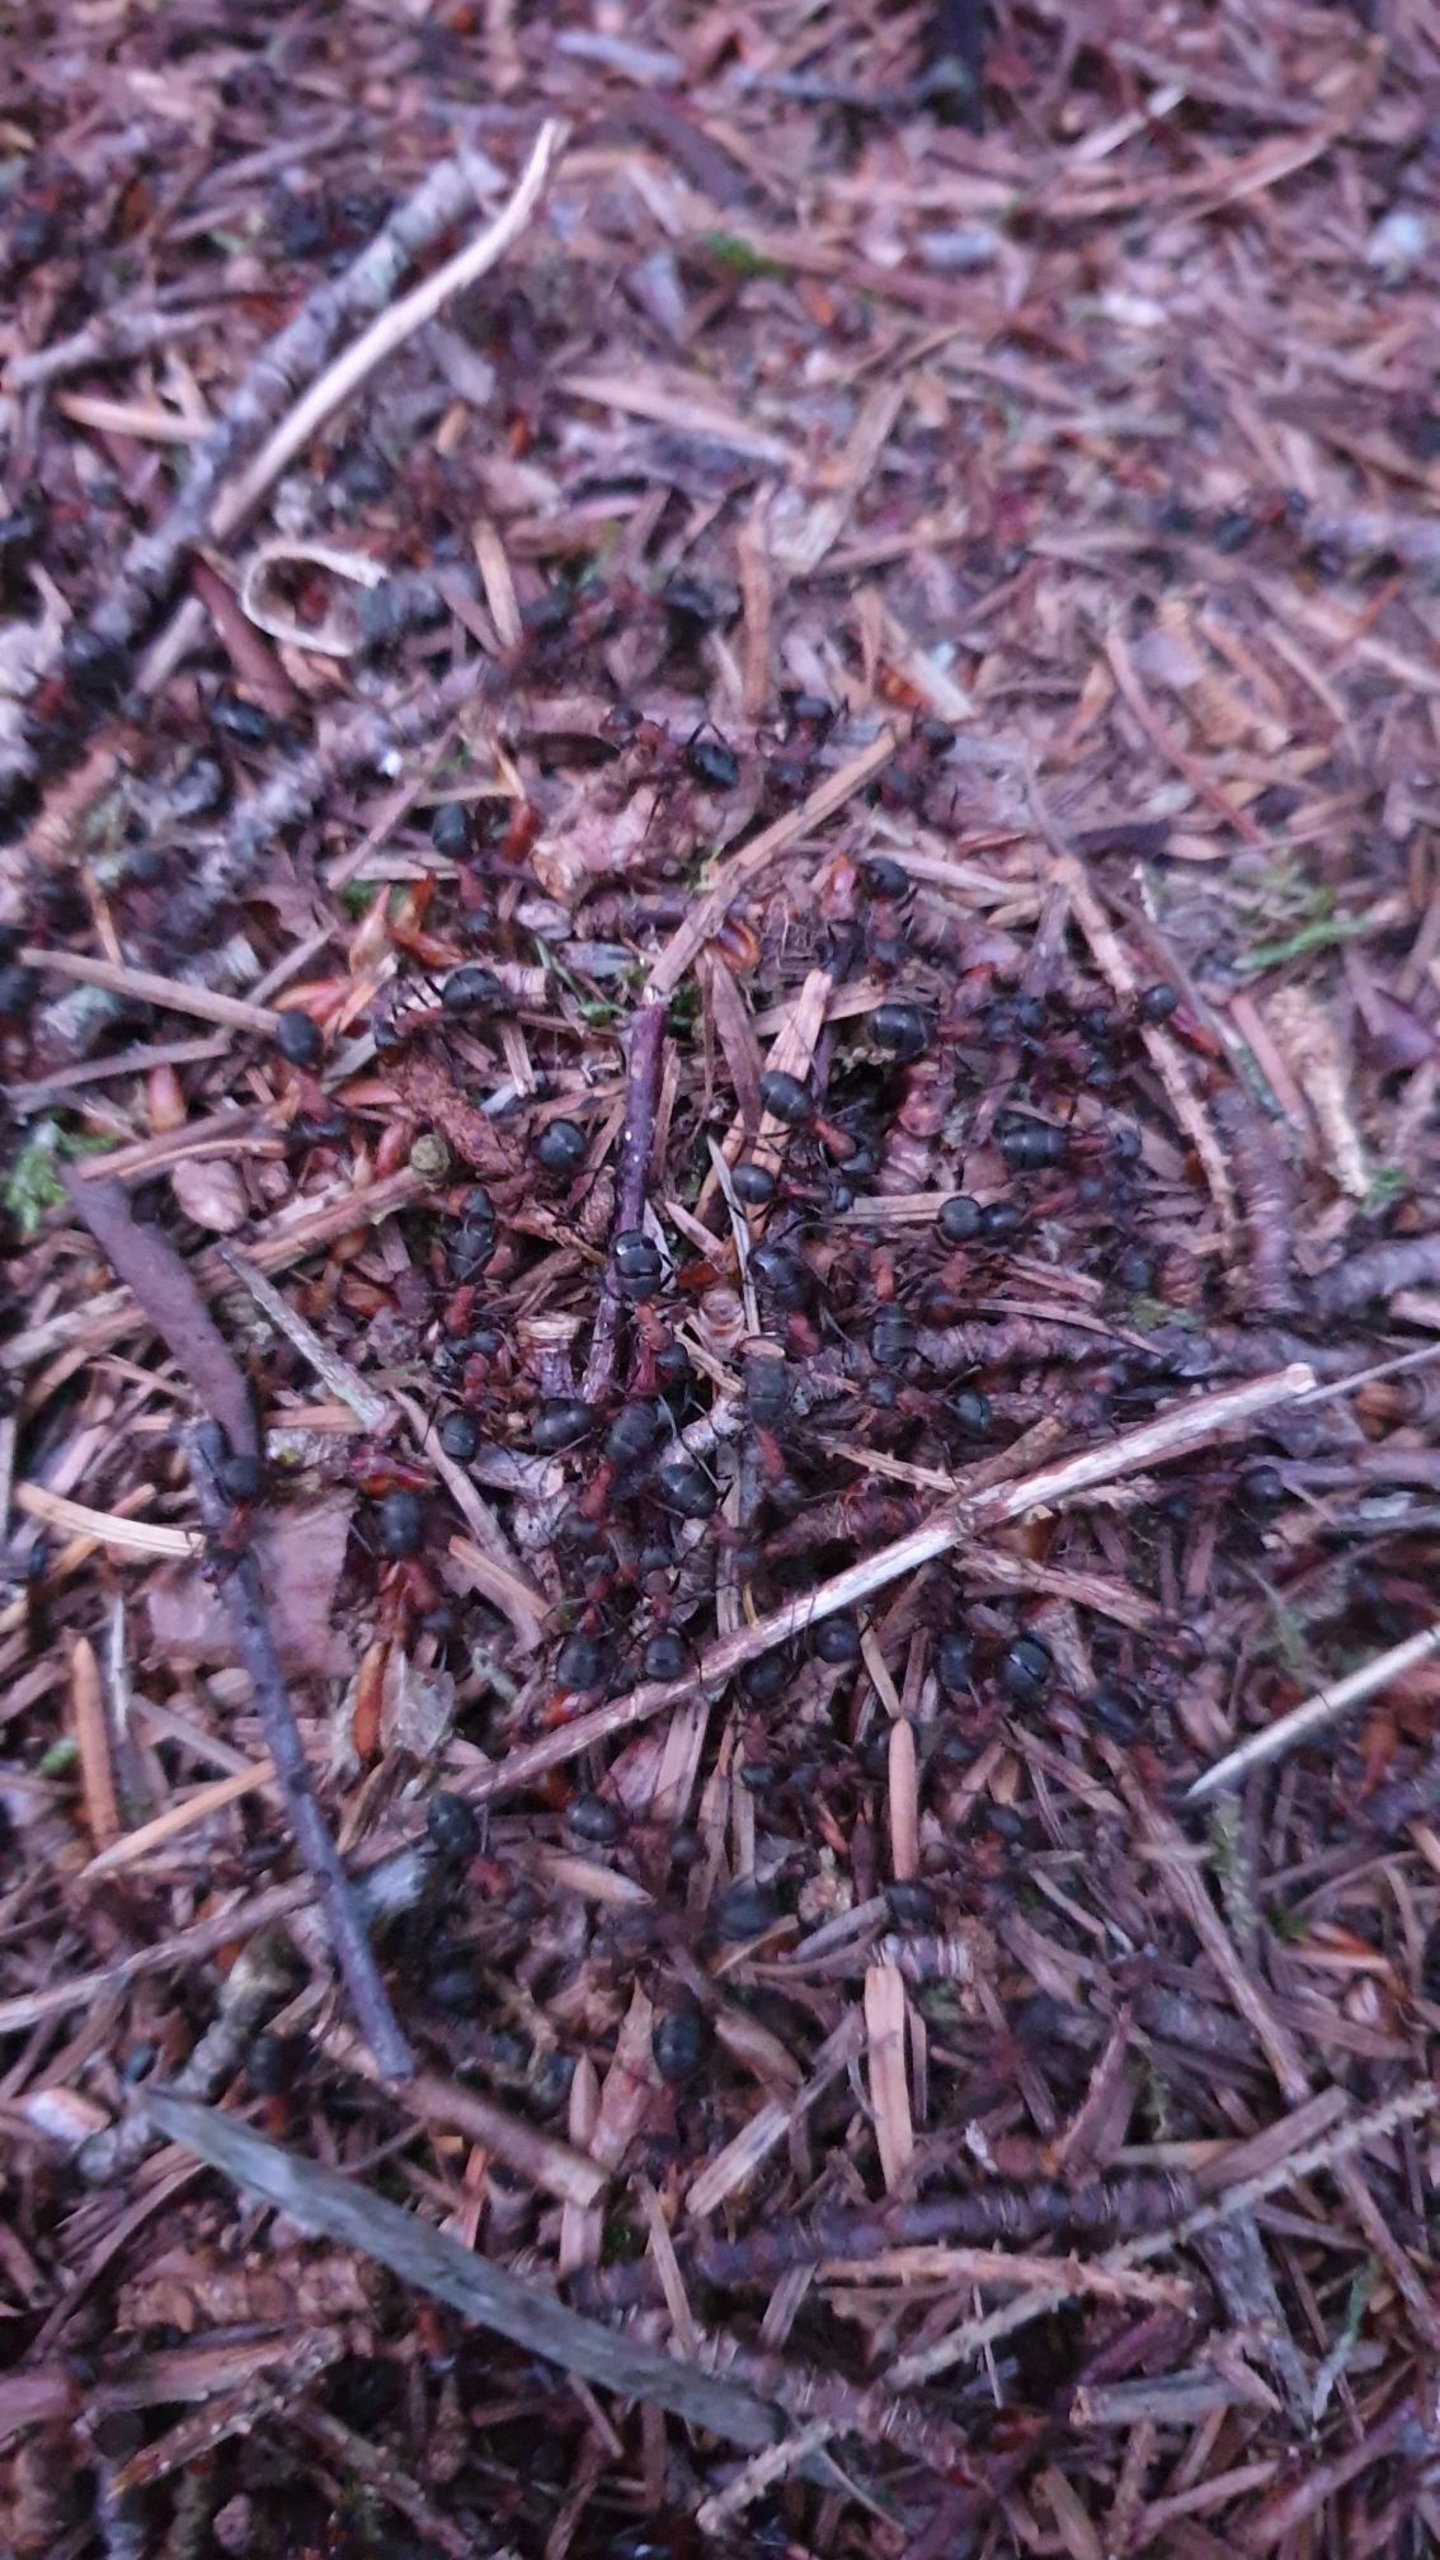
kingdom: Animalia
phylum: Arthropoda
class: Insecta
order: Hymenoptera
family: Formicidae
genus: Formica
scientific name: Formica
